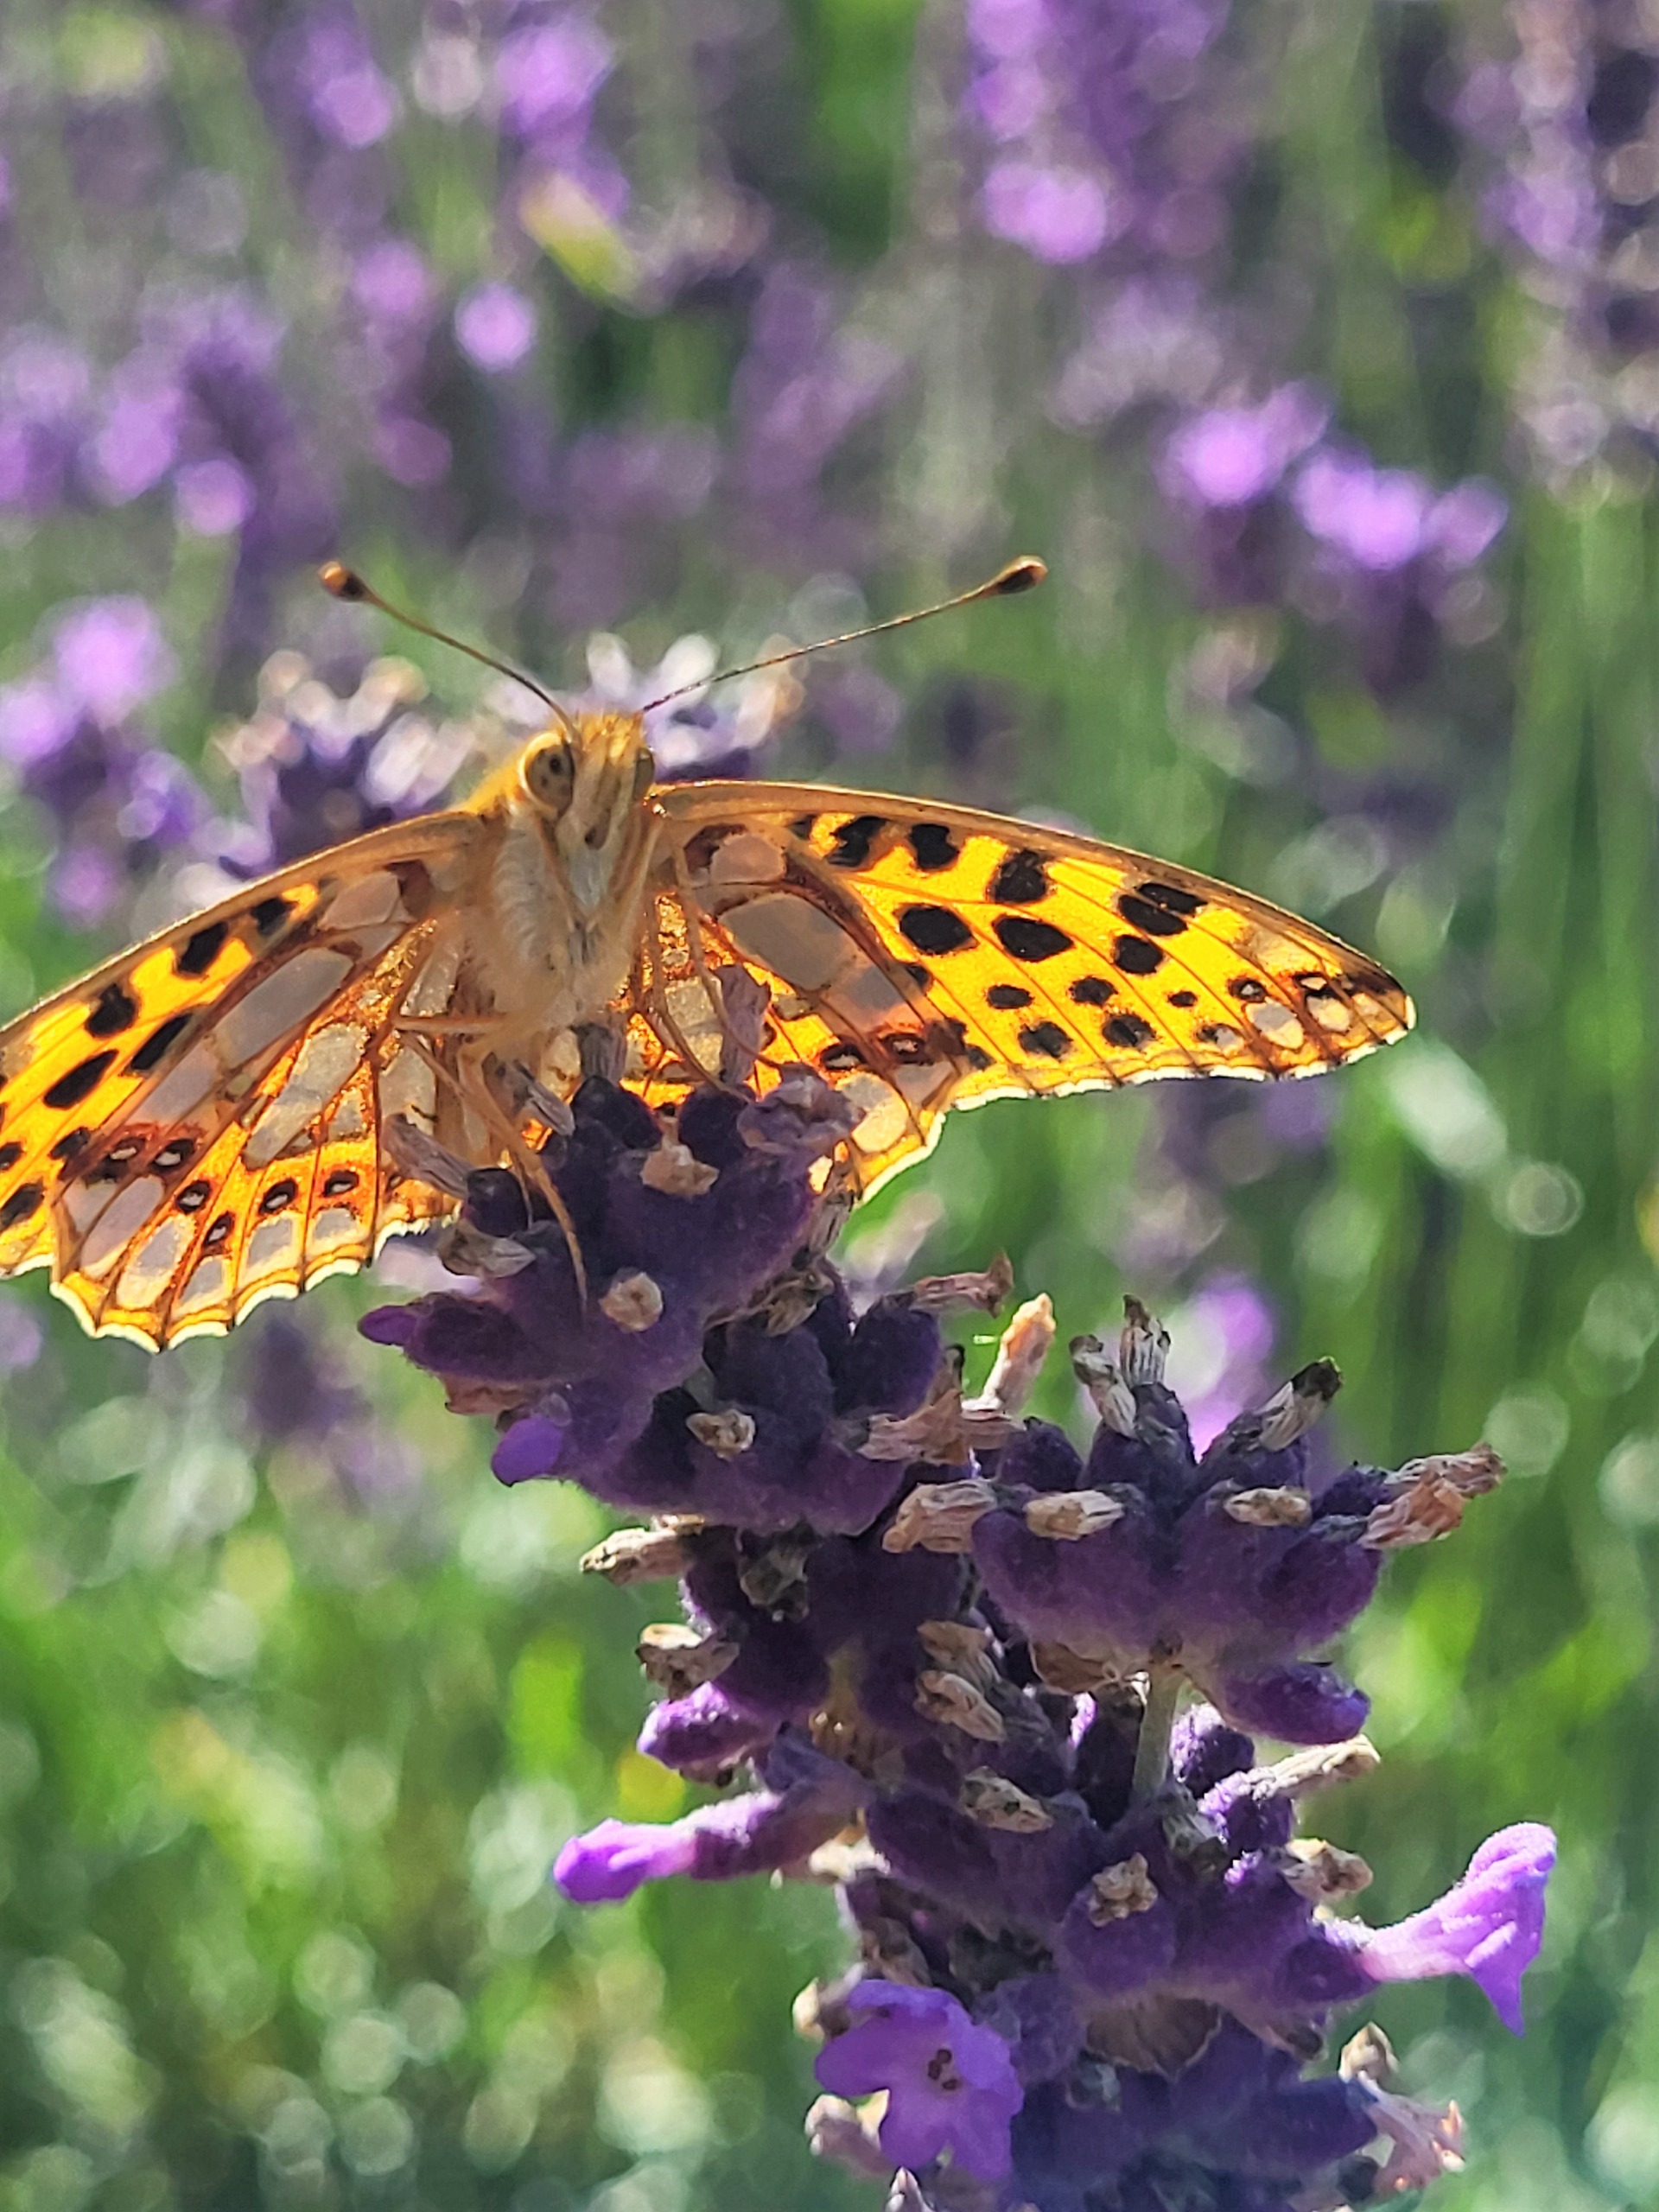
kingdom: Animalia
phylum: Arthropoda
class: Insecta
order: Lepidoptera
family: Nymphalidae
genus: Issoria
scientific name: Issoria lathonia
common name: Storplettet perlemorsommerfugl
